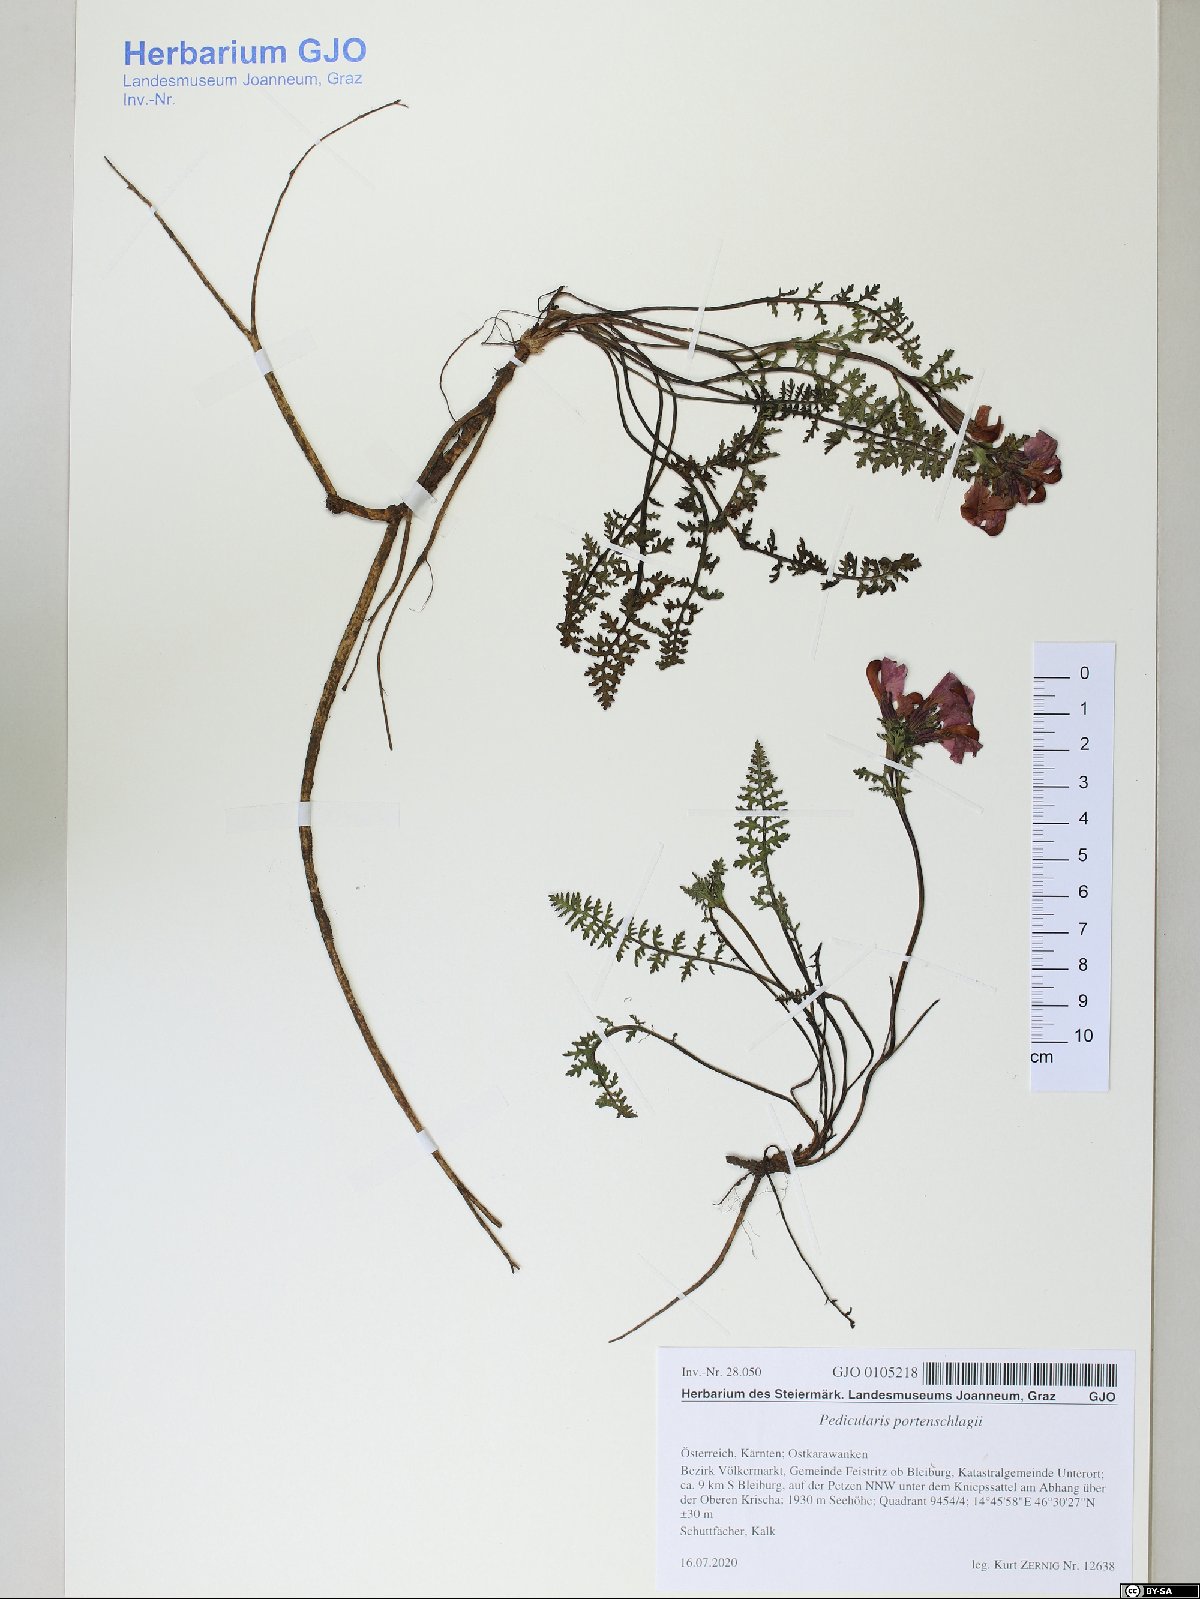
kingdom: Plantae
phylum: Tracheophyta
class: Magnoliopsida
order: Lamiales
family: Orobanchaceae
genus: Pedicularis
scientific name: Pedicularis rostratocapitata
